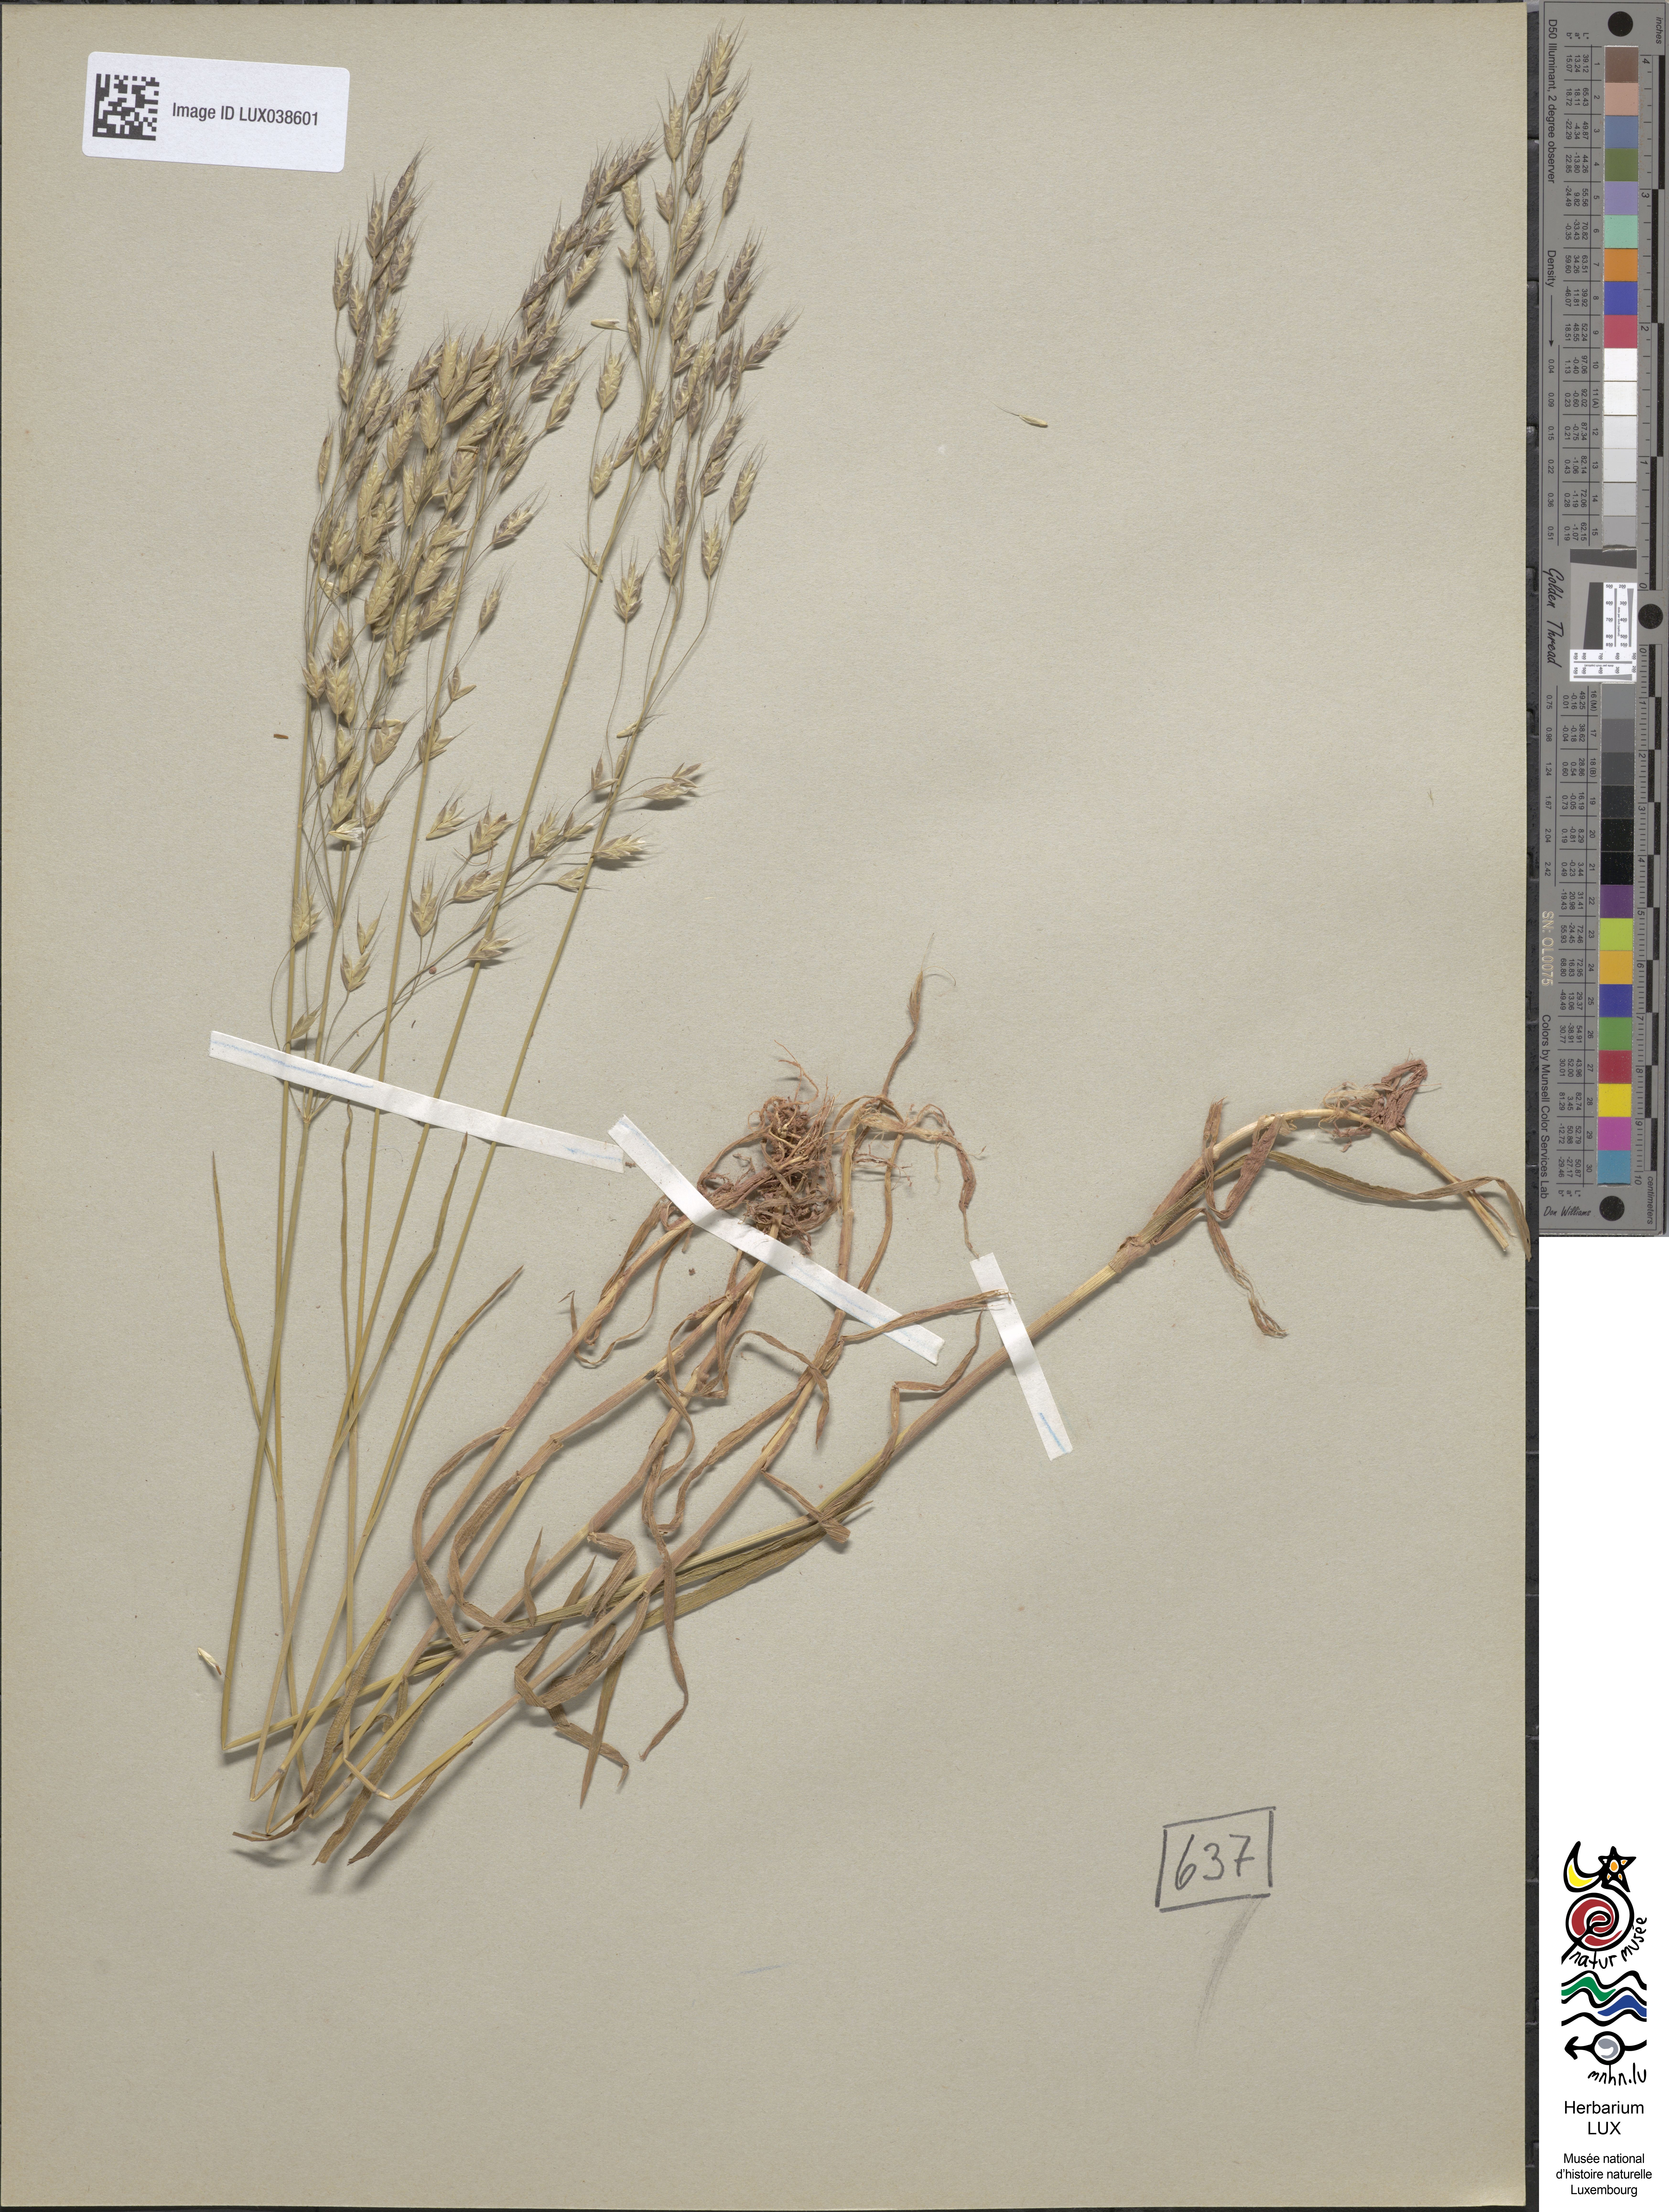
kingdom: Plantae
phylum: Tracheophyta
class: Liliopsida
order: Poales
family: Poaceae
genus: Bromus
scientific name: Bromus arvensis
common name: Field brome
